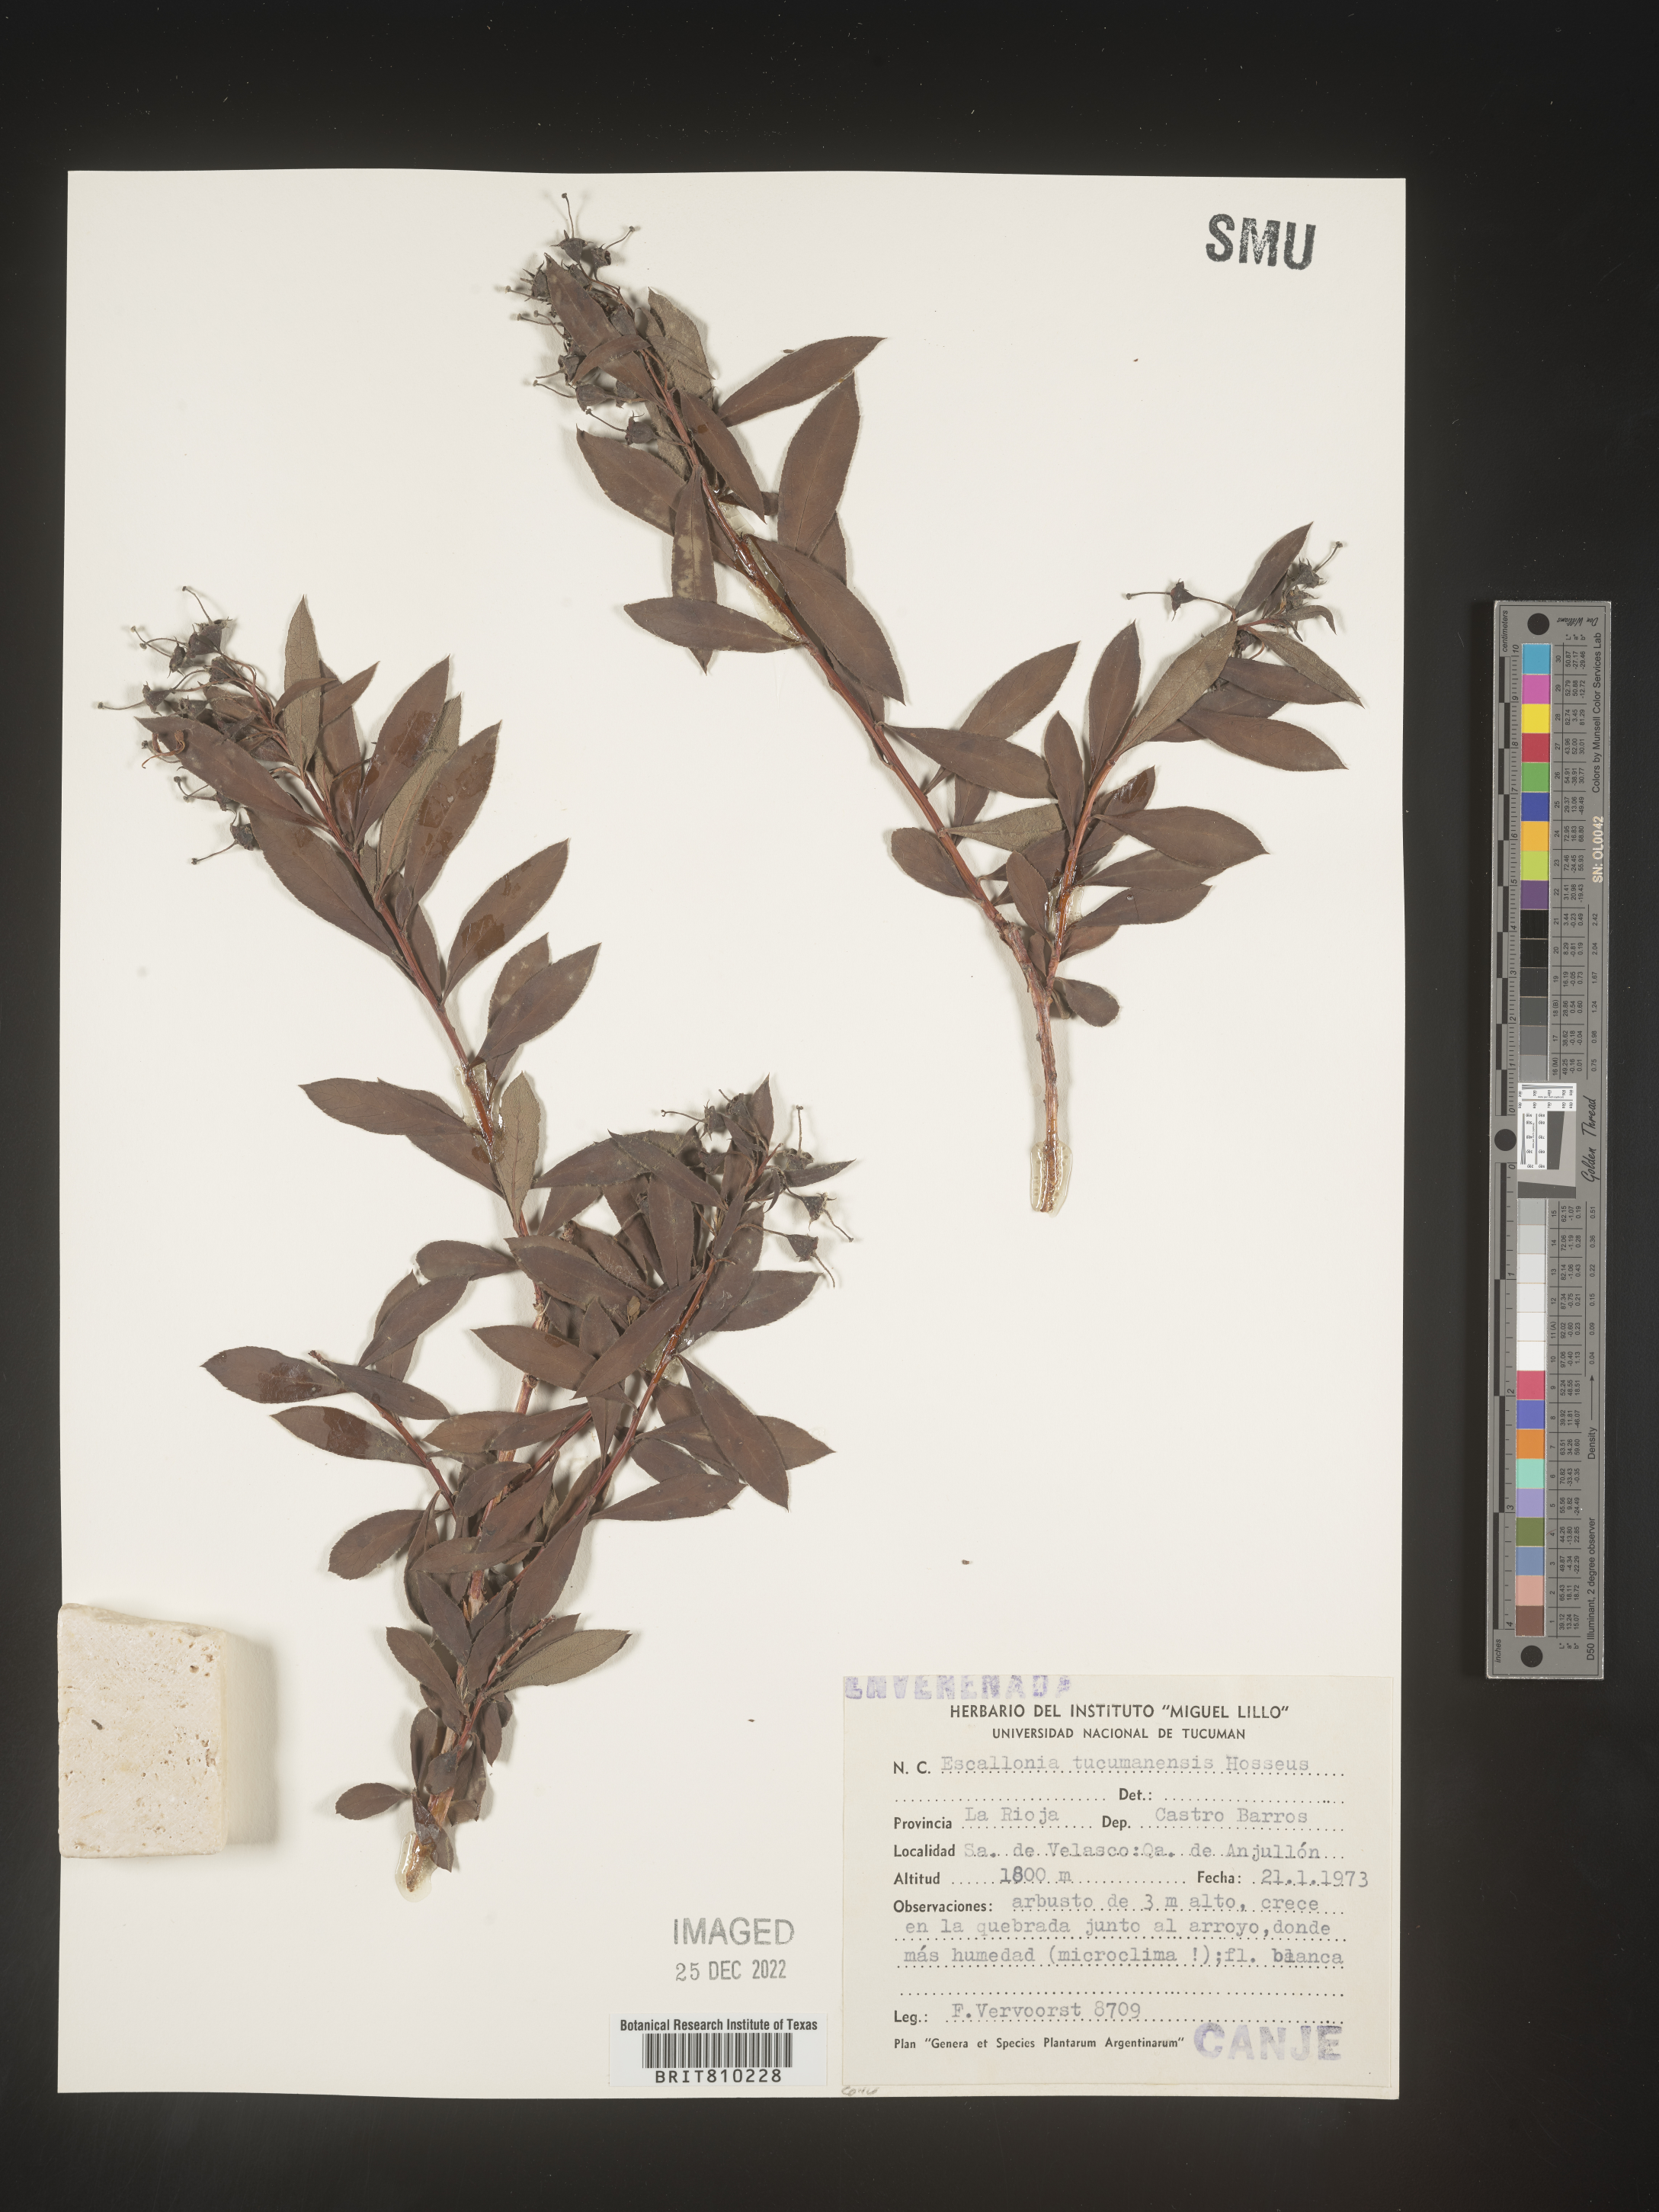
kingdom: Plantae
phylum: Tracheophyta
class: Magnoliopsida
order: Escalloniales
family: Escalloniaceae
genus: Escallonia
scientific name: Escallonia
